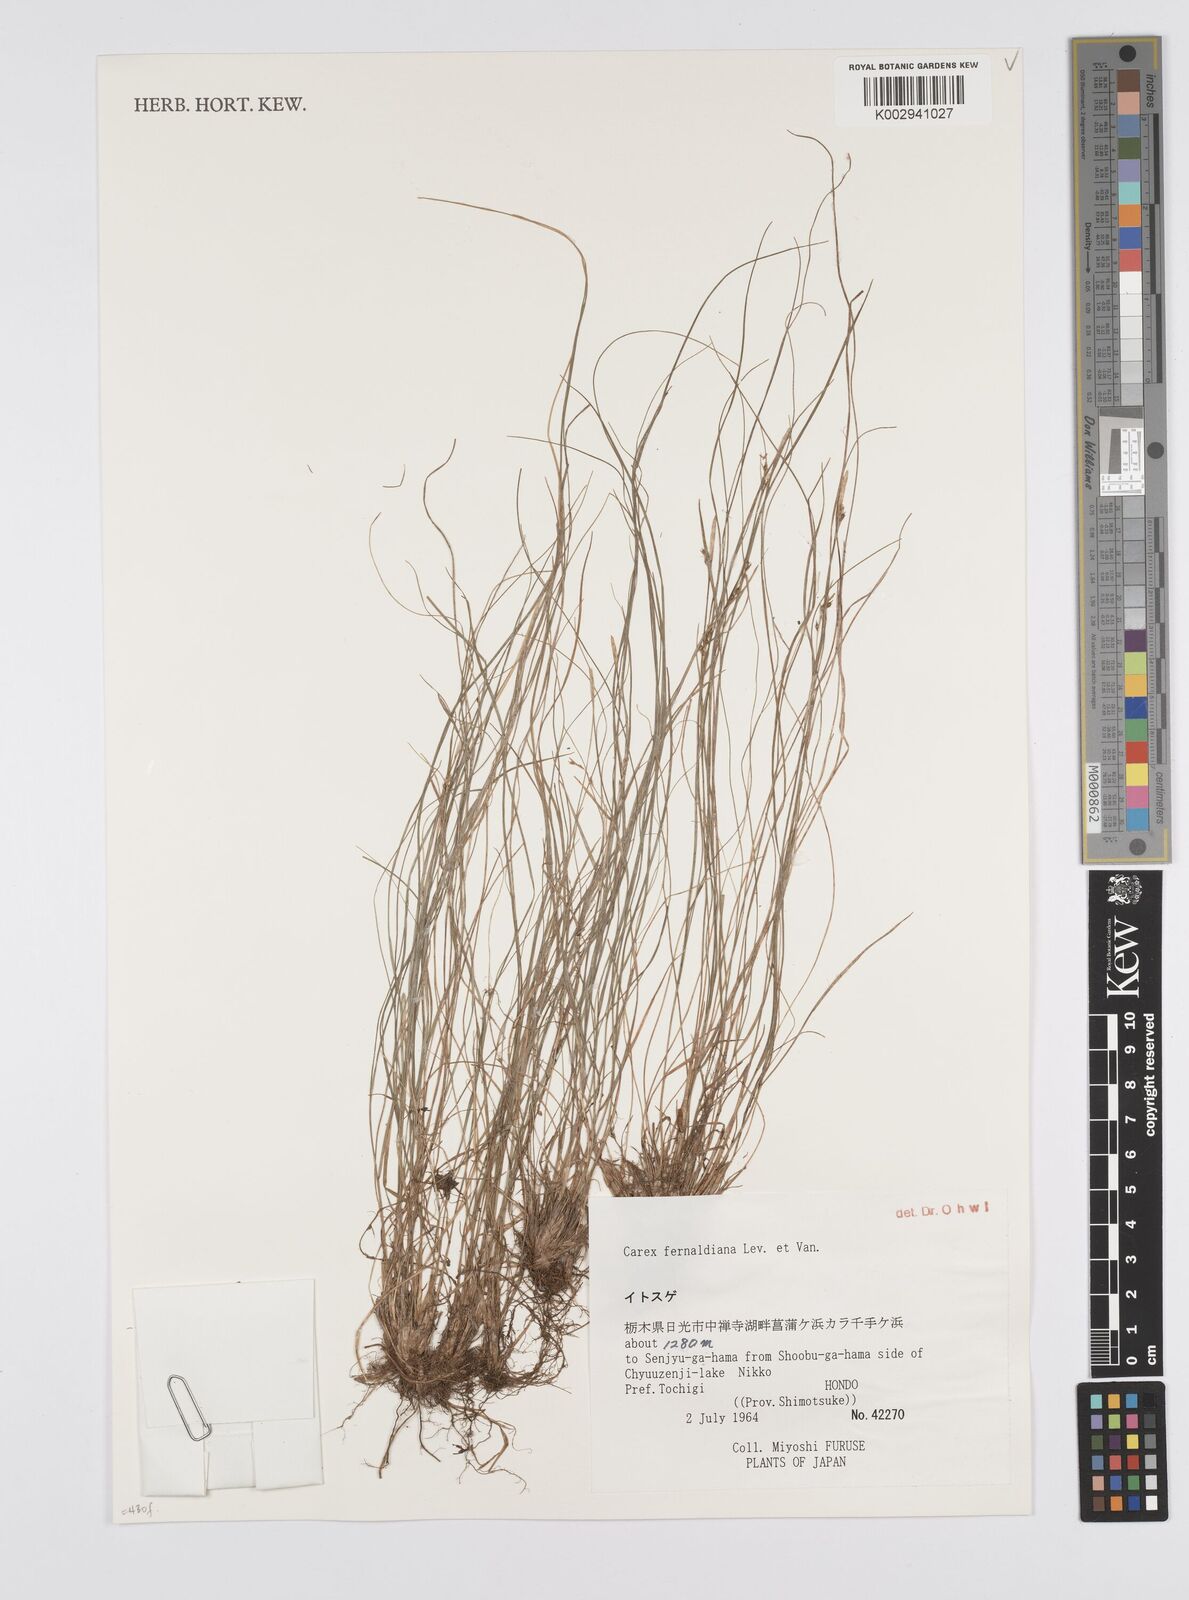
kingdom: Plantae
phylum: Tracheophyta
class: Liliopsida
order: Poales
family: Cyperaceae
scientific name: Cyperaceae
